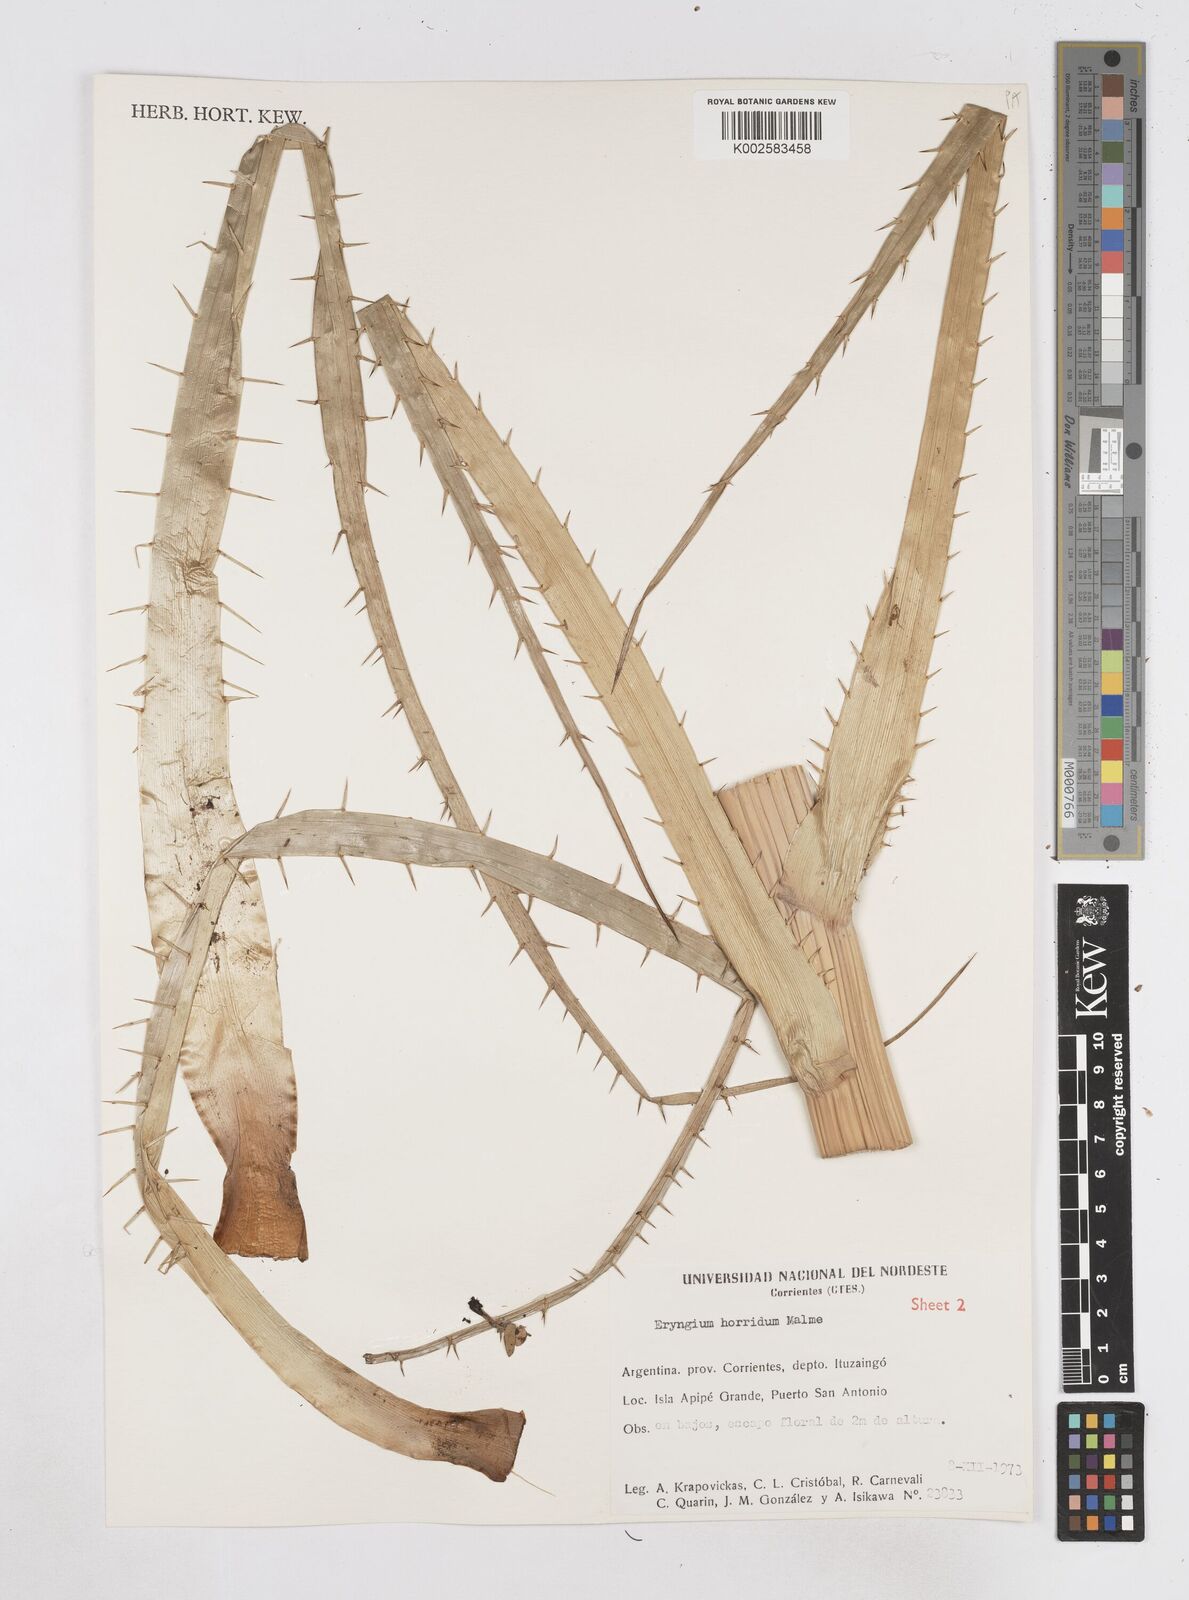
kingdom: Plantae
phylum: Tracheophyta
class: Magnoliopsida
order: Apiales
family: Apiaceae
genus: Eryngium
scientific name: Eryngium horridum
